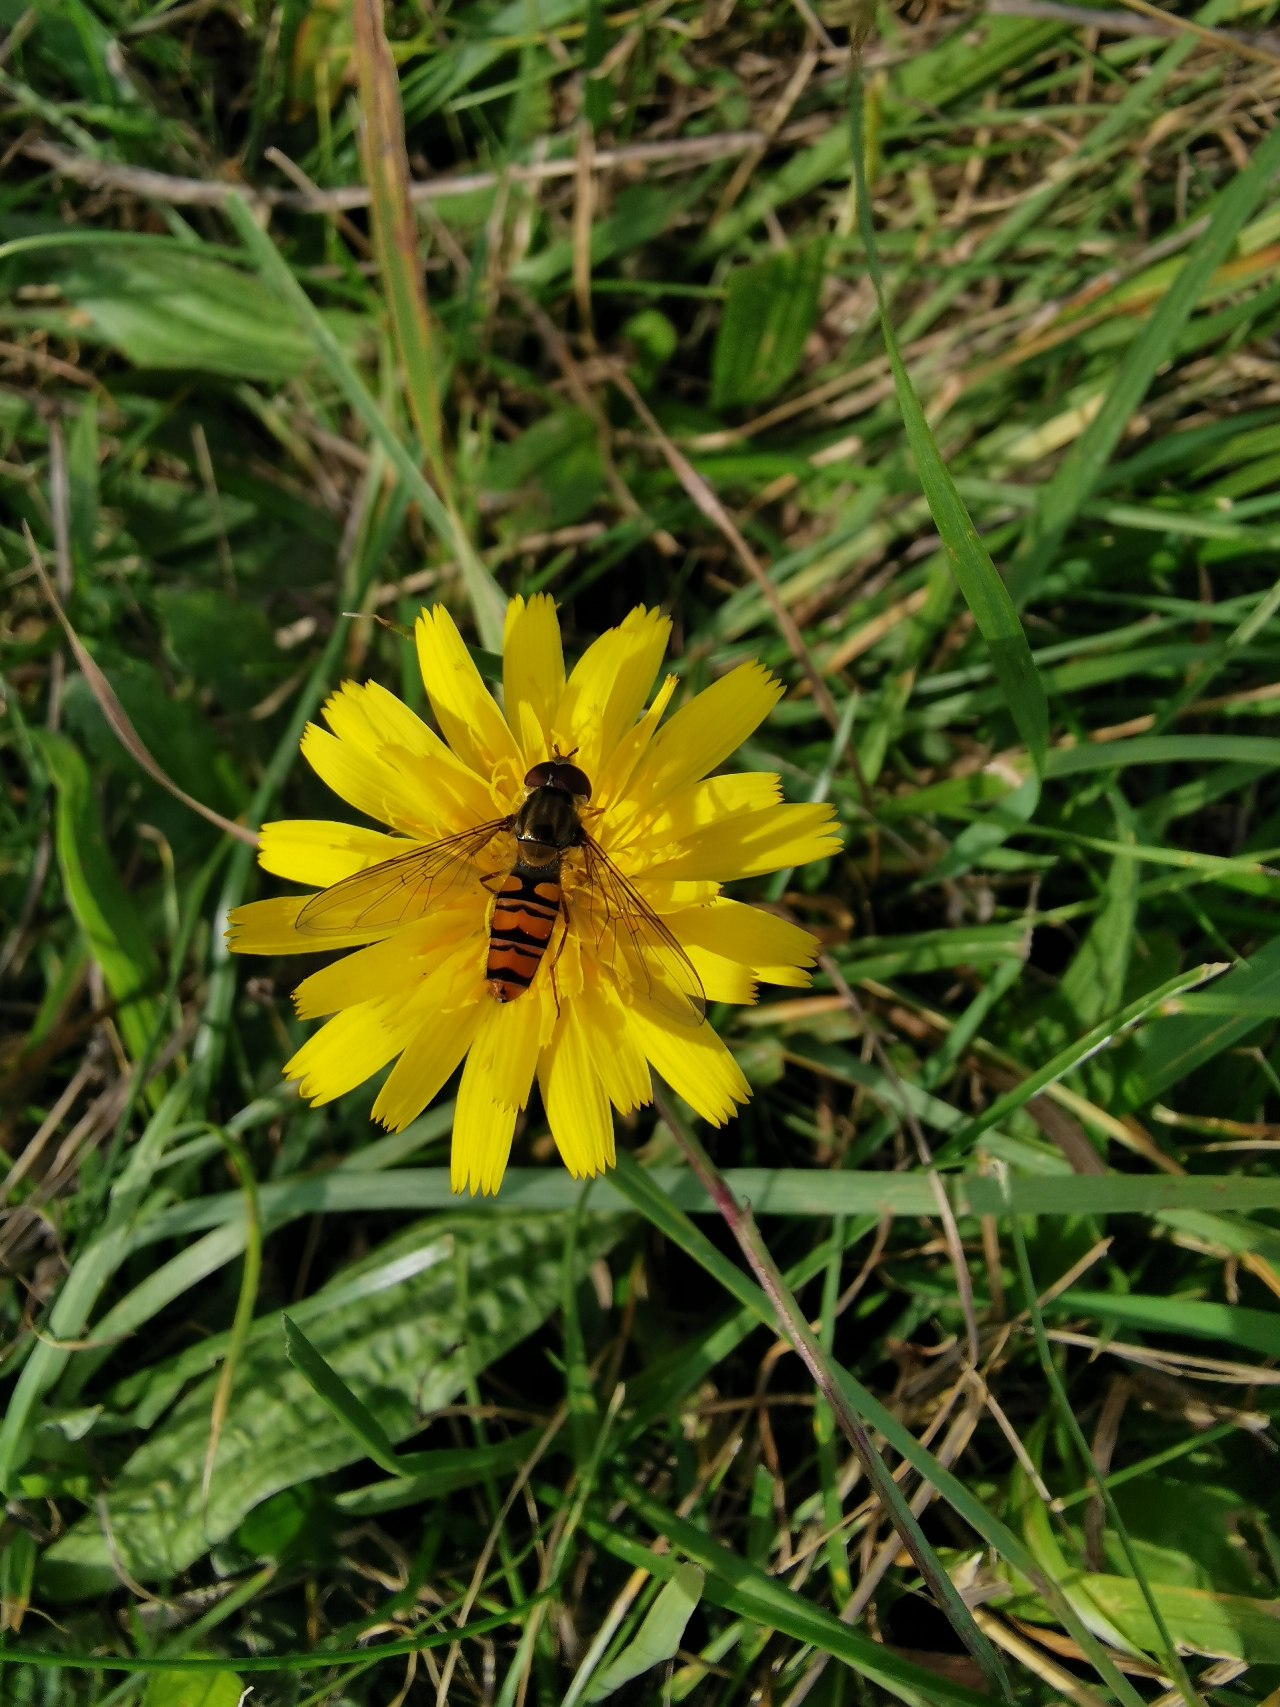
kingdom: Animalia
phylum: Arthropoda
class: Insecta
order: Diptera
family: Syrphidae
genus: Episyrphus
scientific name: Episyrphus balteatus
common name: Dobbeltbåndet svirreflue
